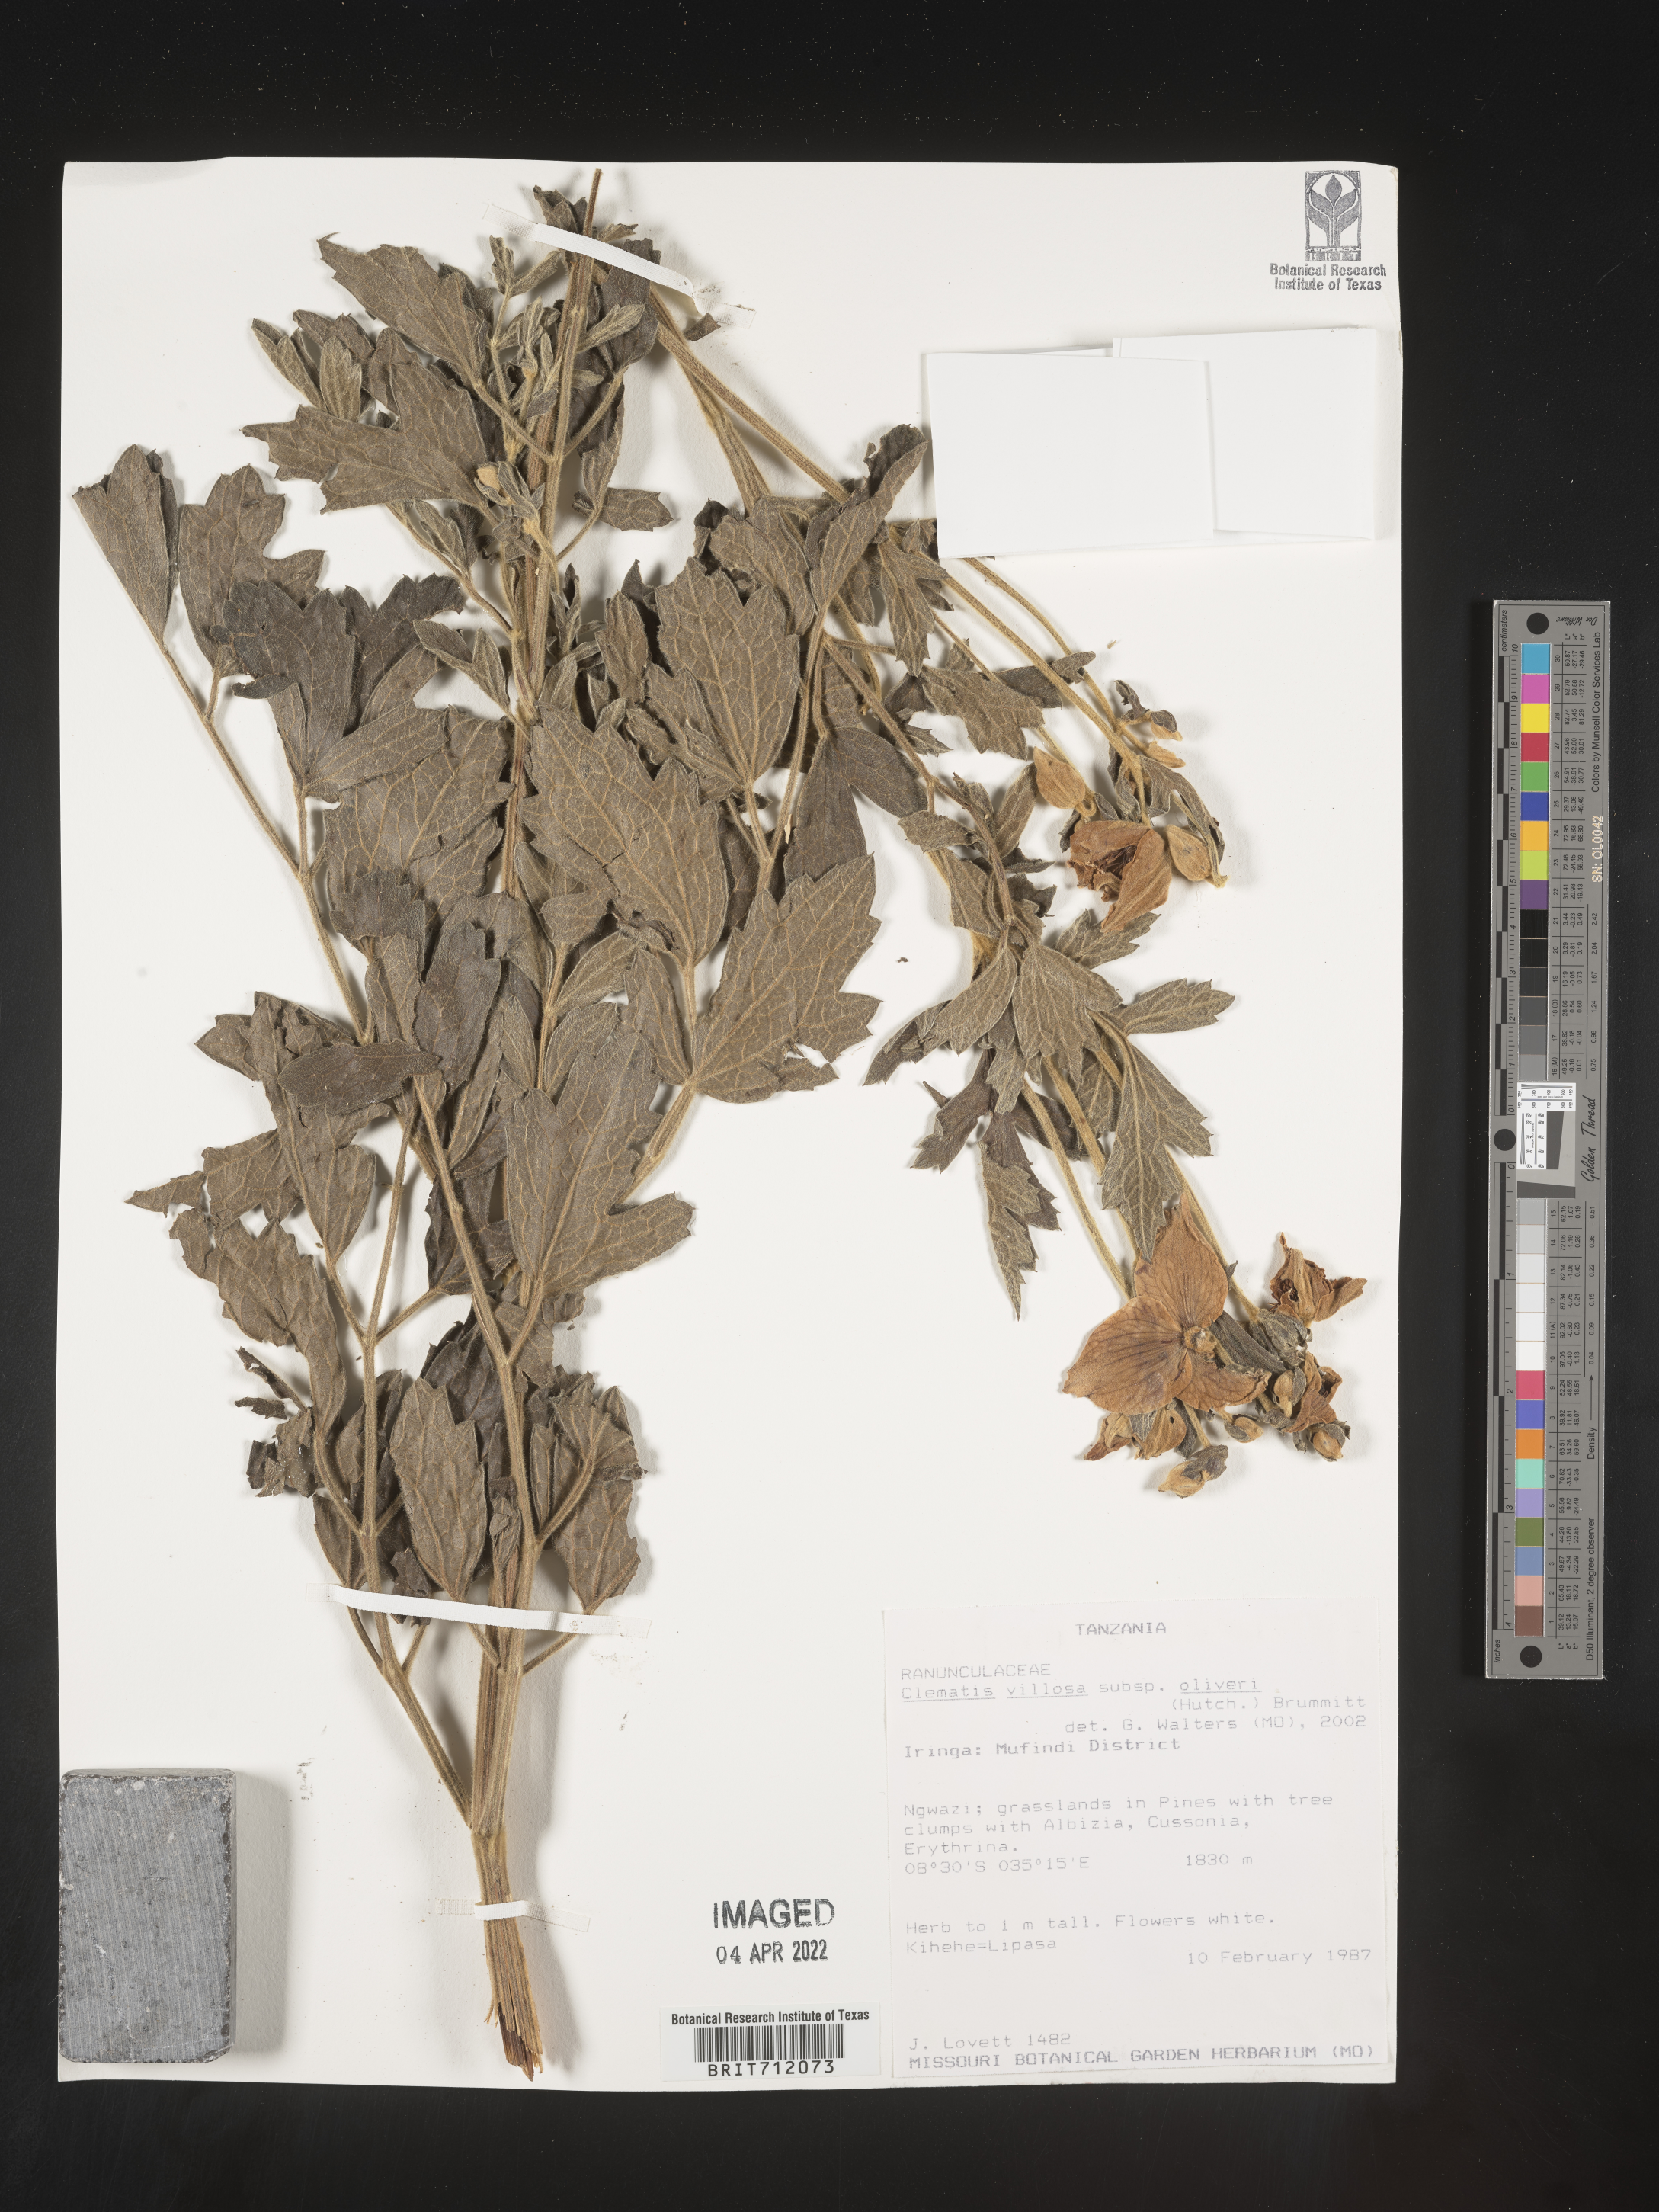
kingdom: Plantae
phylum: Tracheophyta
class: Magnoliopsida
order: Ranunculales
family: Ranunculaceae
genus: Clematis
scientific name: Clematis
